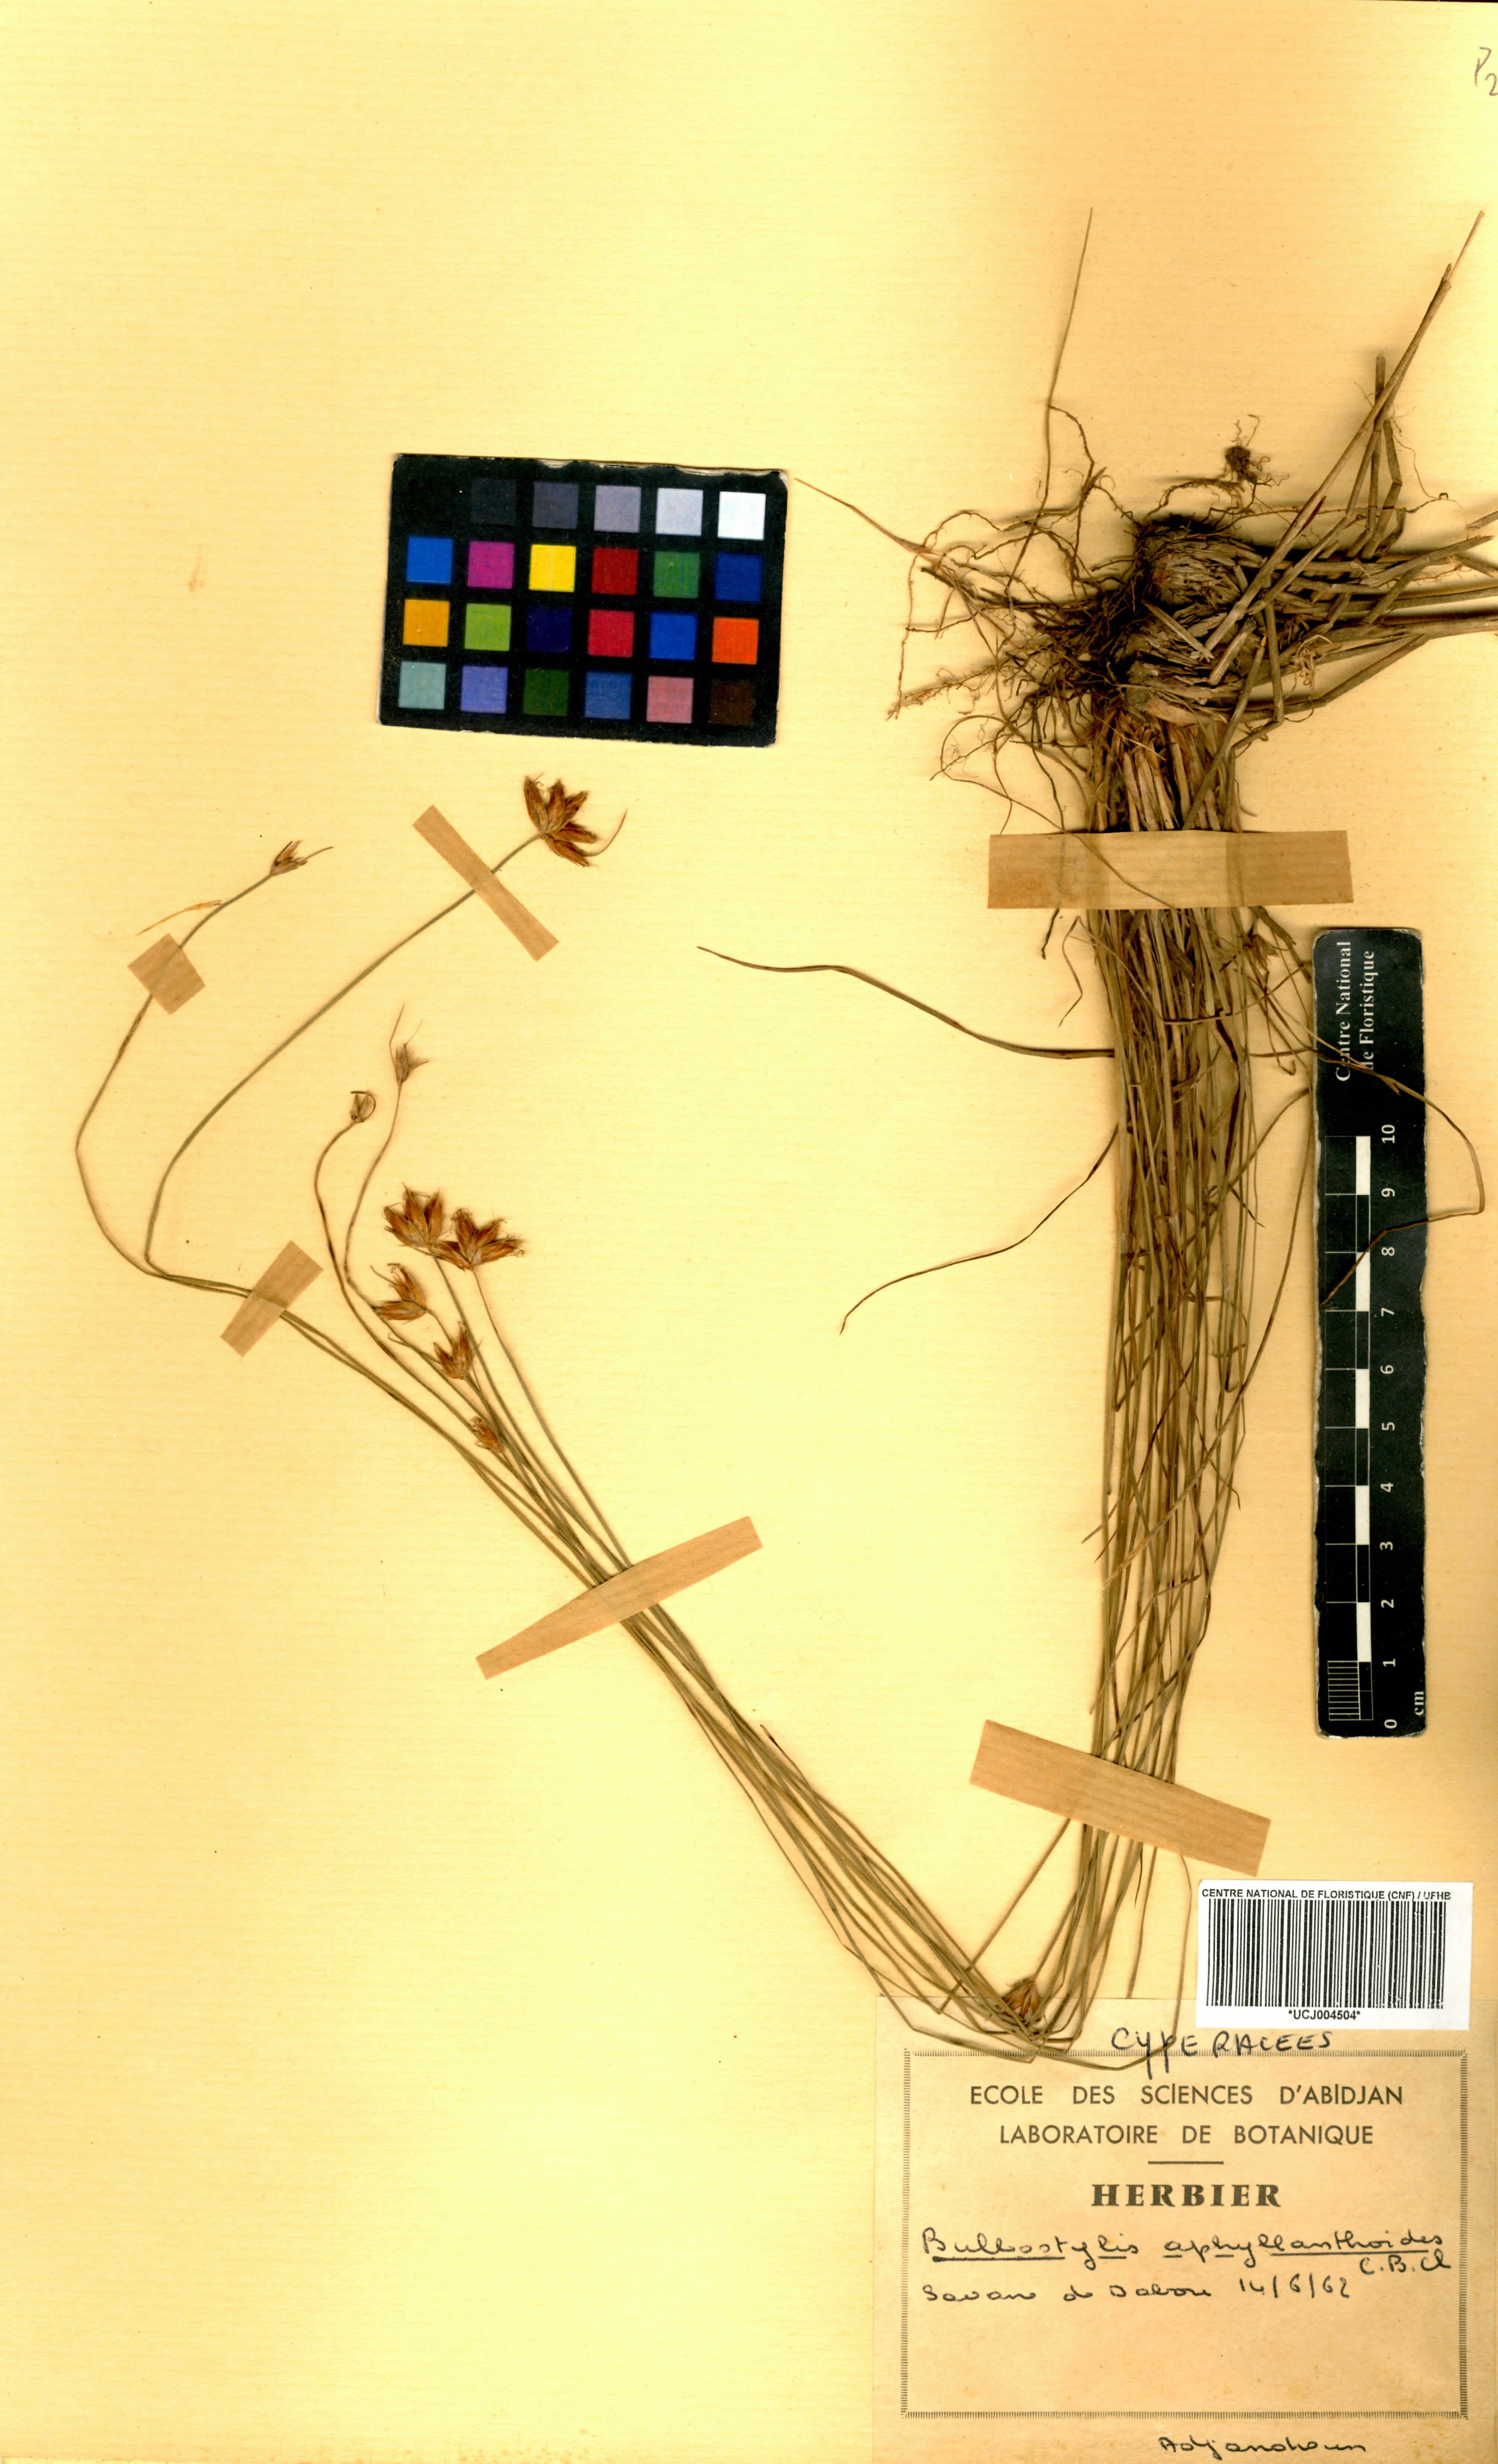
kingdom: Plantae
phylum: Tracheophyta
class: Liliopsida
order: Poales
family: Cyperaceae
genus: Bulbostylis
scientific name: Bulbostylis pilosa
